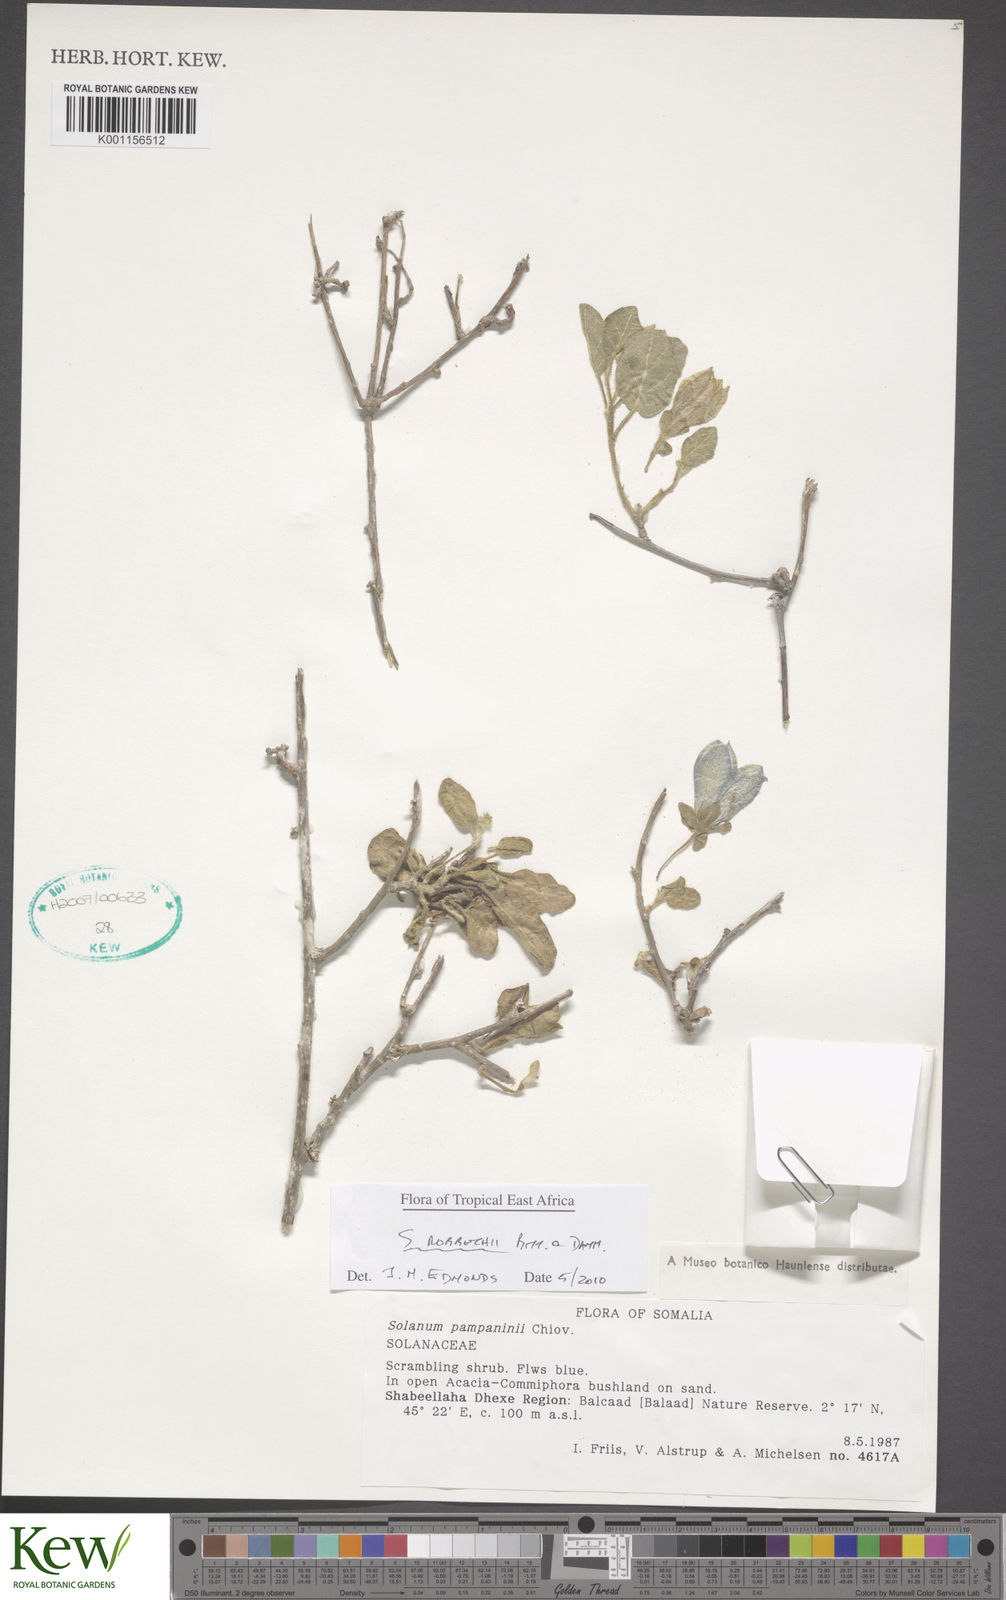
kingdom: Plantae
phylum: Tracheophyta
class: Magnoliopsida
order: Solanales
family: Solanaceae
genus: Solanum
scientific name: Solanum pampaninii
